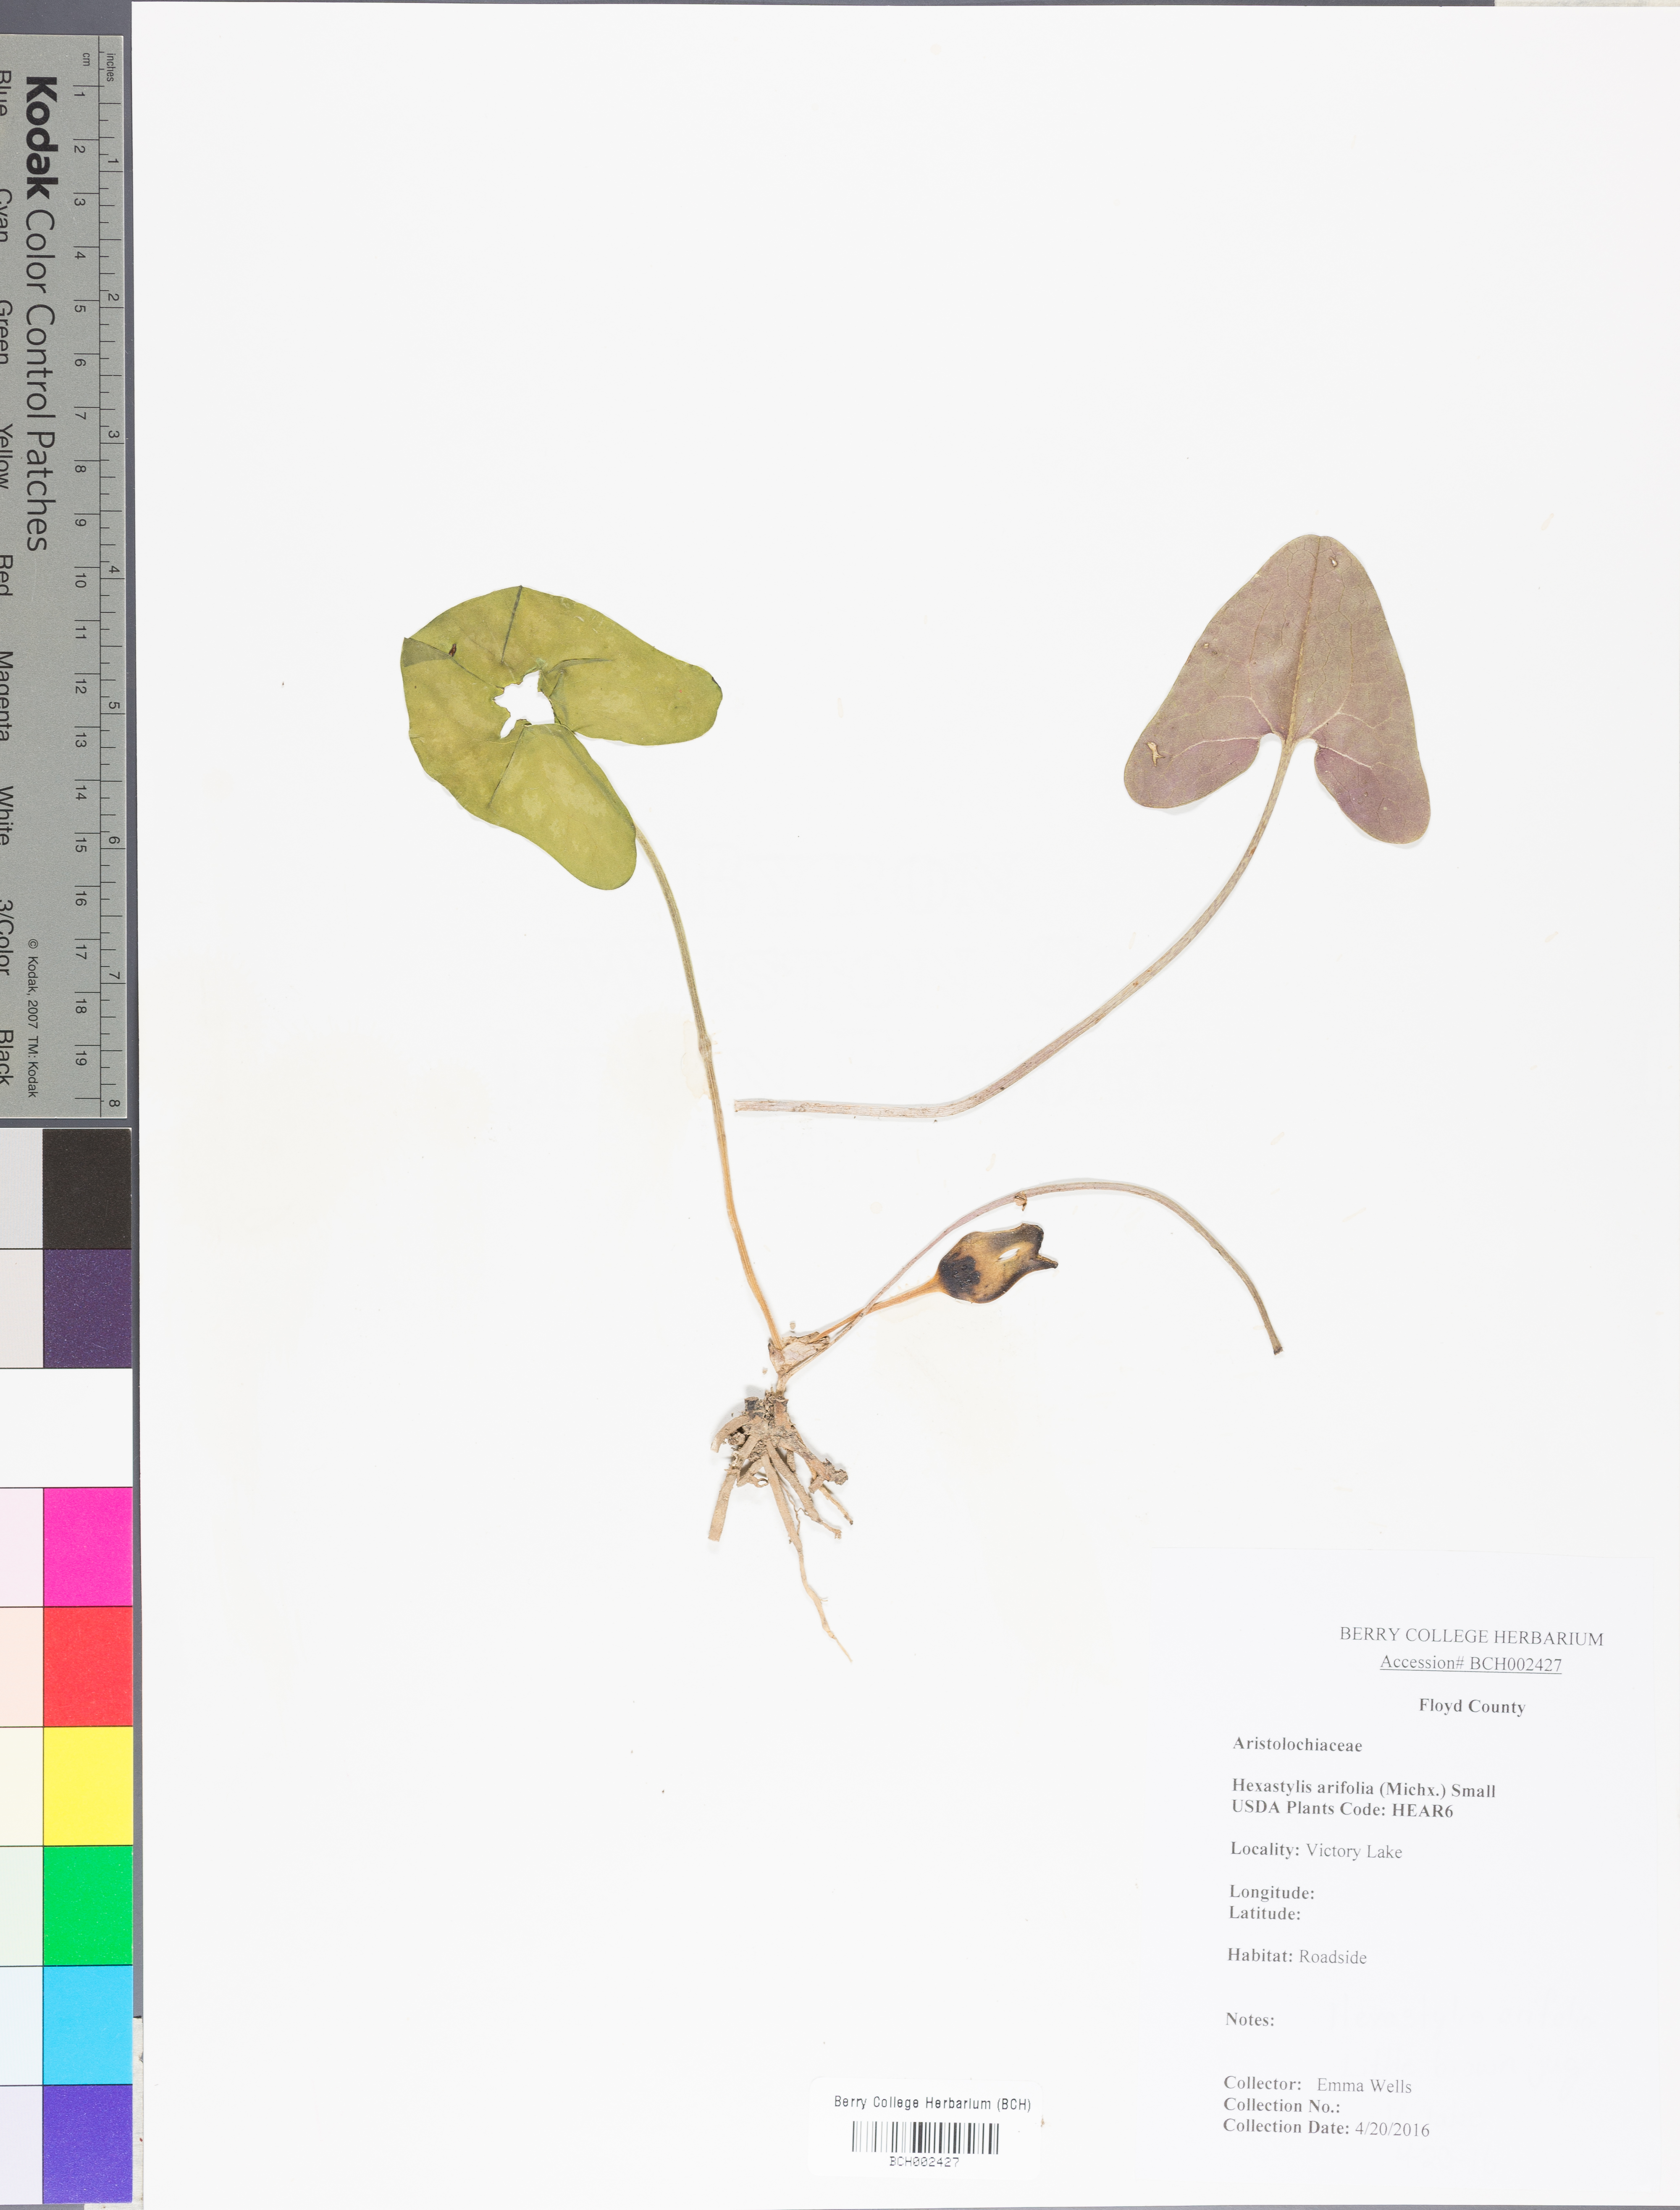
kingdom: Plantae
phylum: Tracheophyta
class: Magnoliopsida
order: Piperales
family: Aristolochiaceae
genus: Hexastylis
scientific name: Hexastylis arifolia
